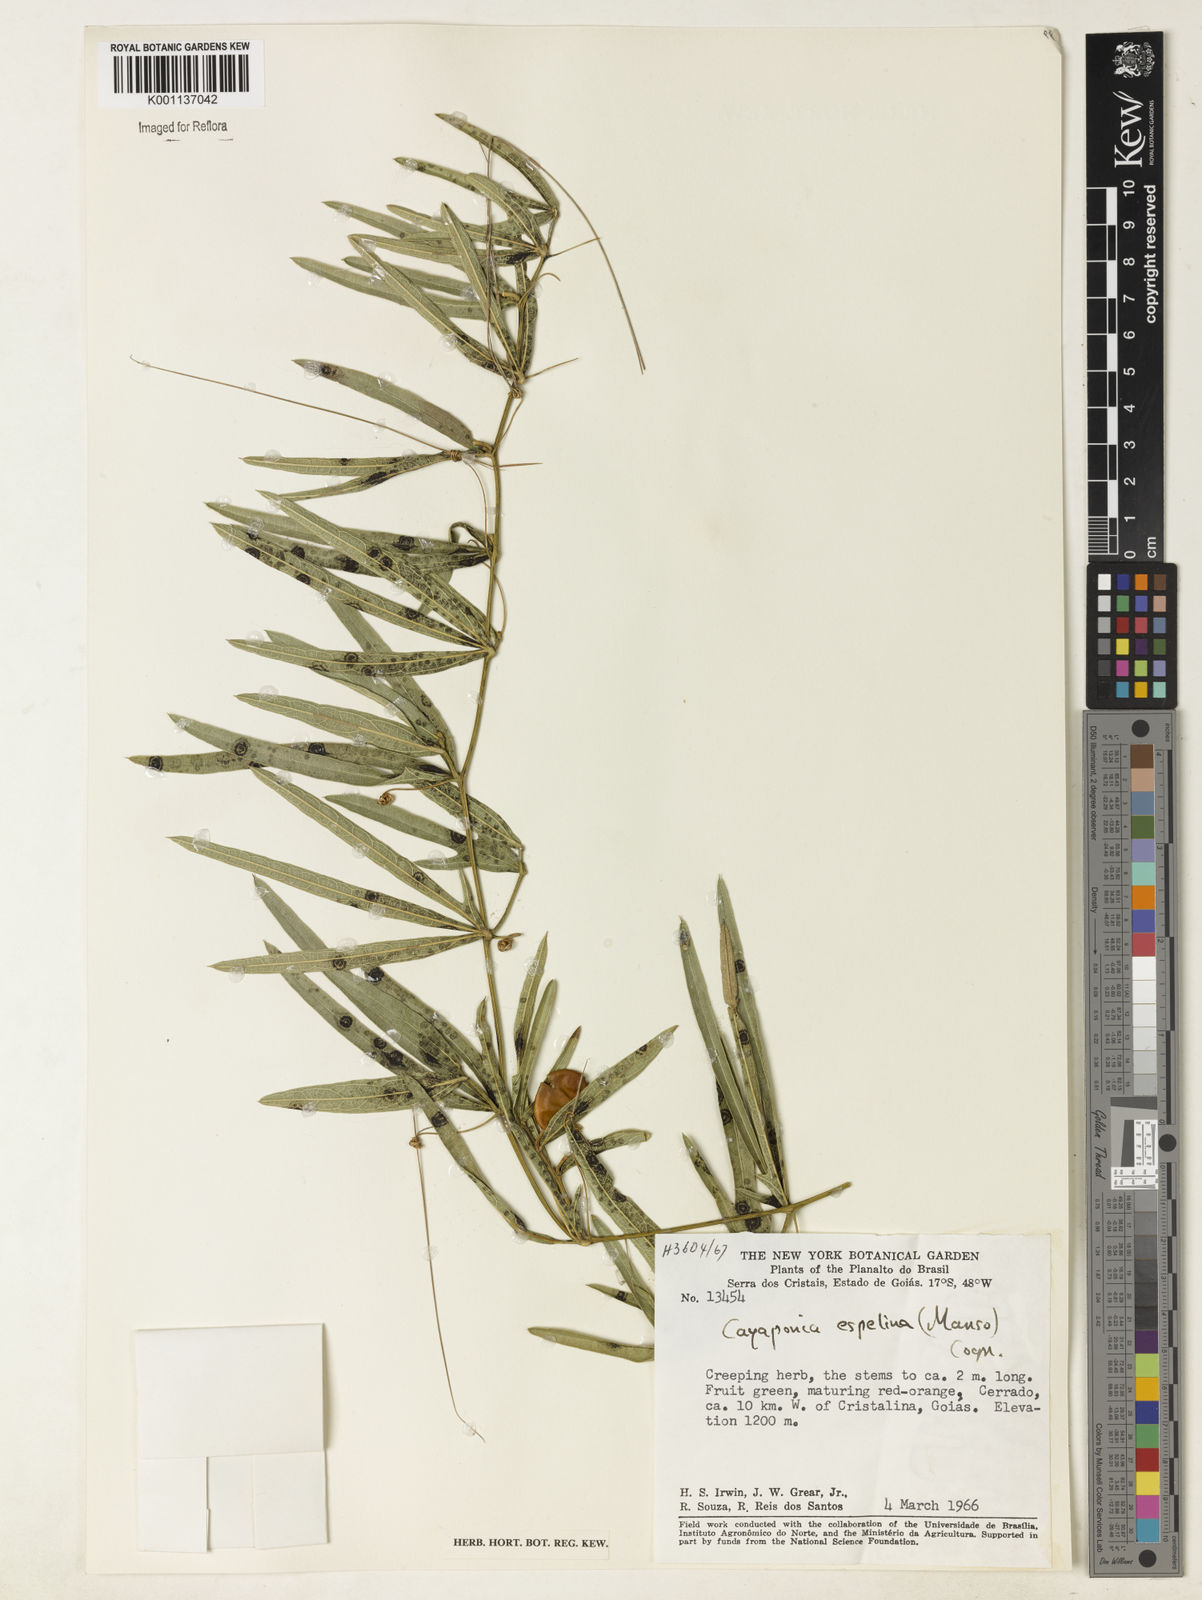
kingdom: Plantae
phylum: Tracheophyta
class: Magnoliopsida
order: Cucurbitales
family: Cucurbitaceae
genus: Cayaponia
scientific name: Cayaponia espelina
